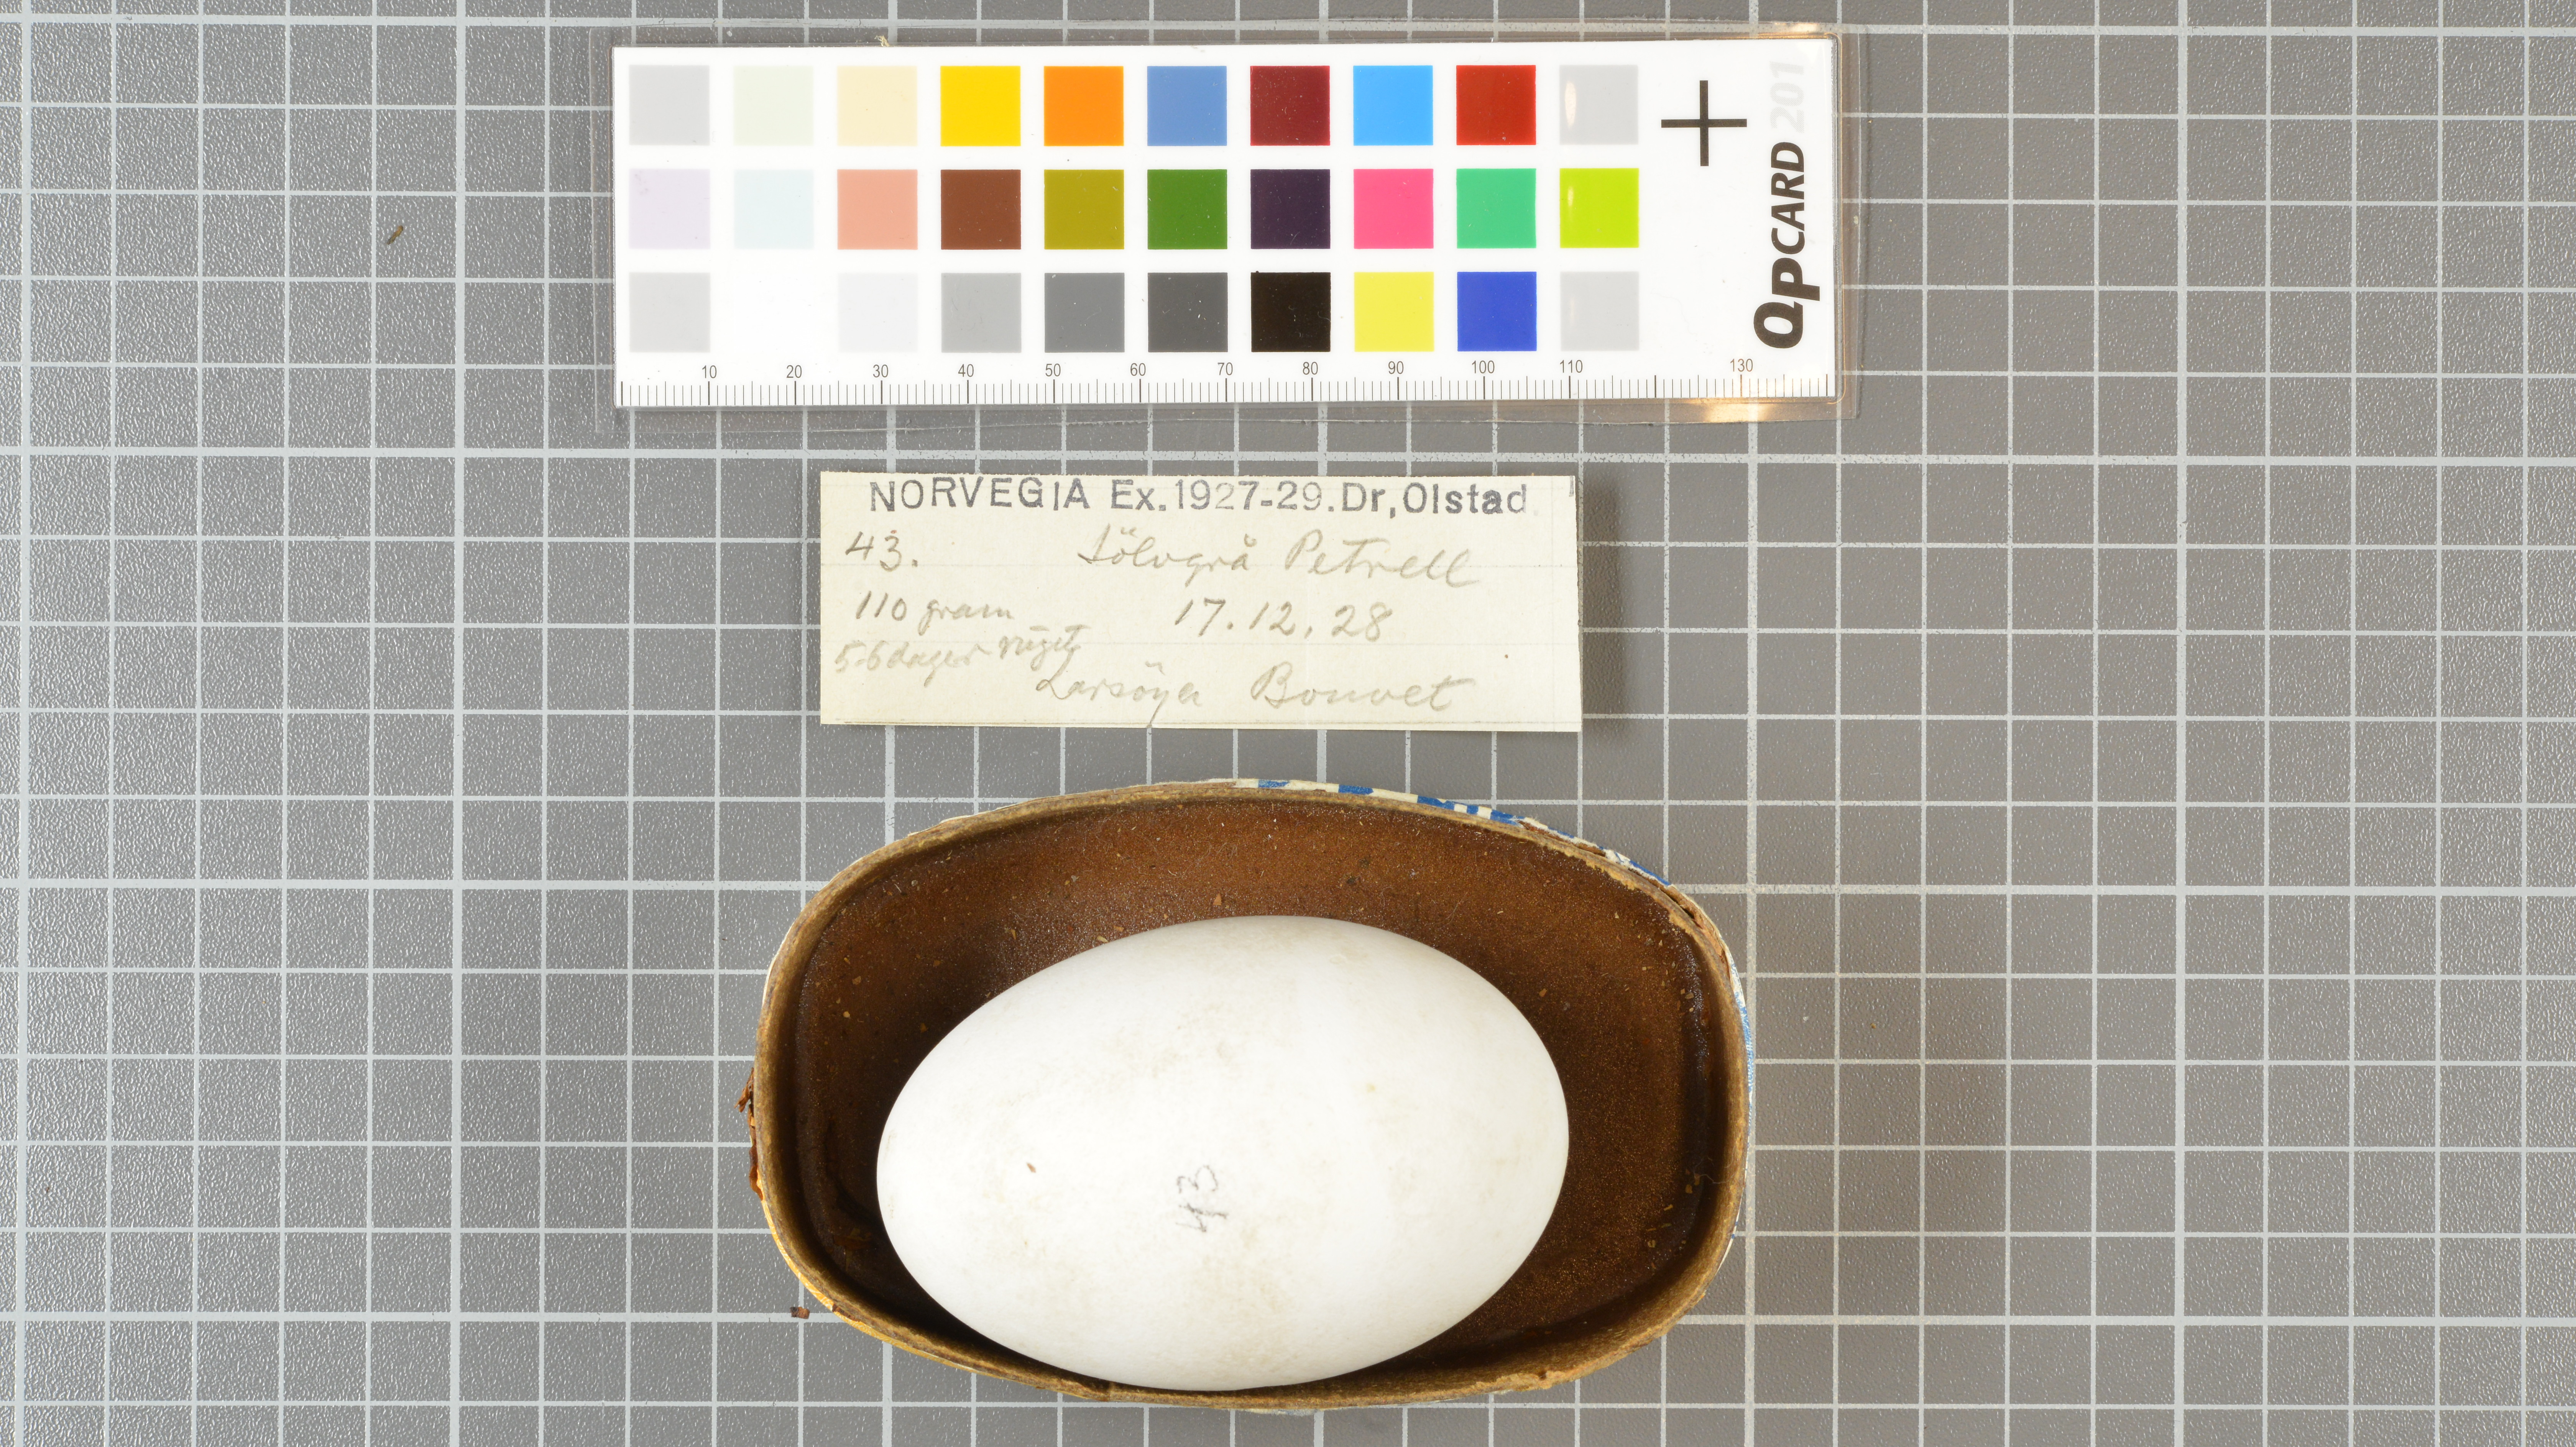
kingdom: Animalia
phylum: Chordata
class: Aves
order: Procellariiformes
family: Procellariidae
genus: Fulmarus
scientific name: Fulmarus glacialoides
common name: Southern fulmar
